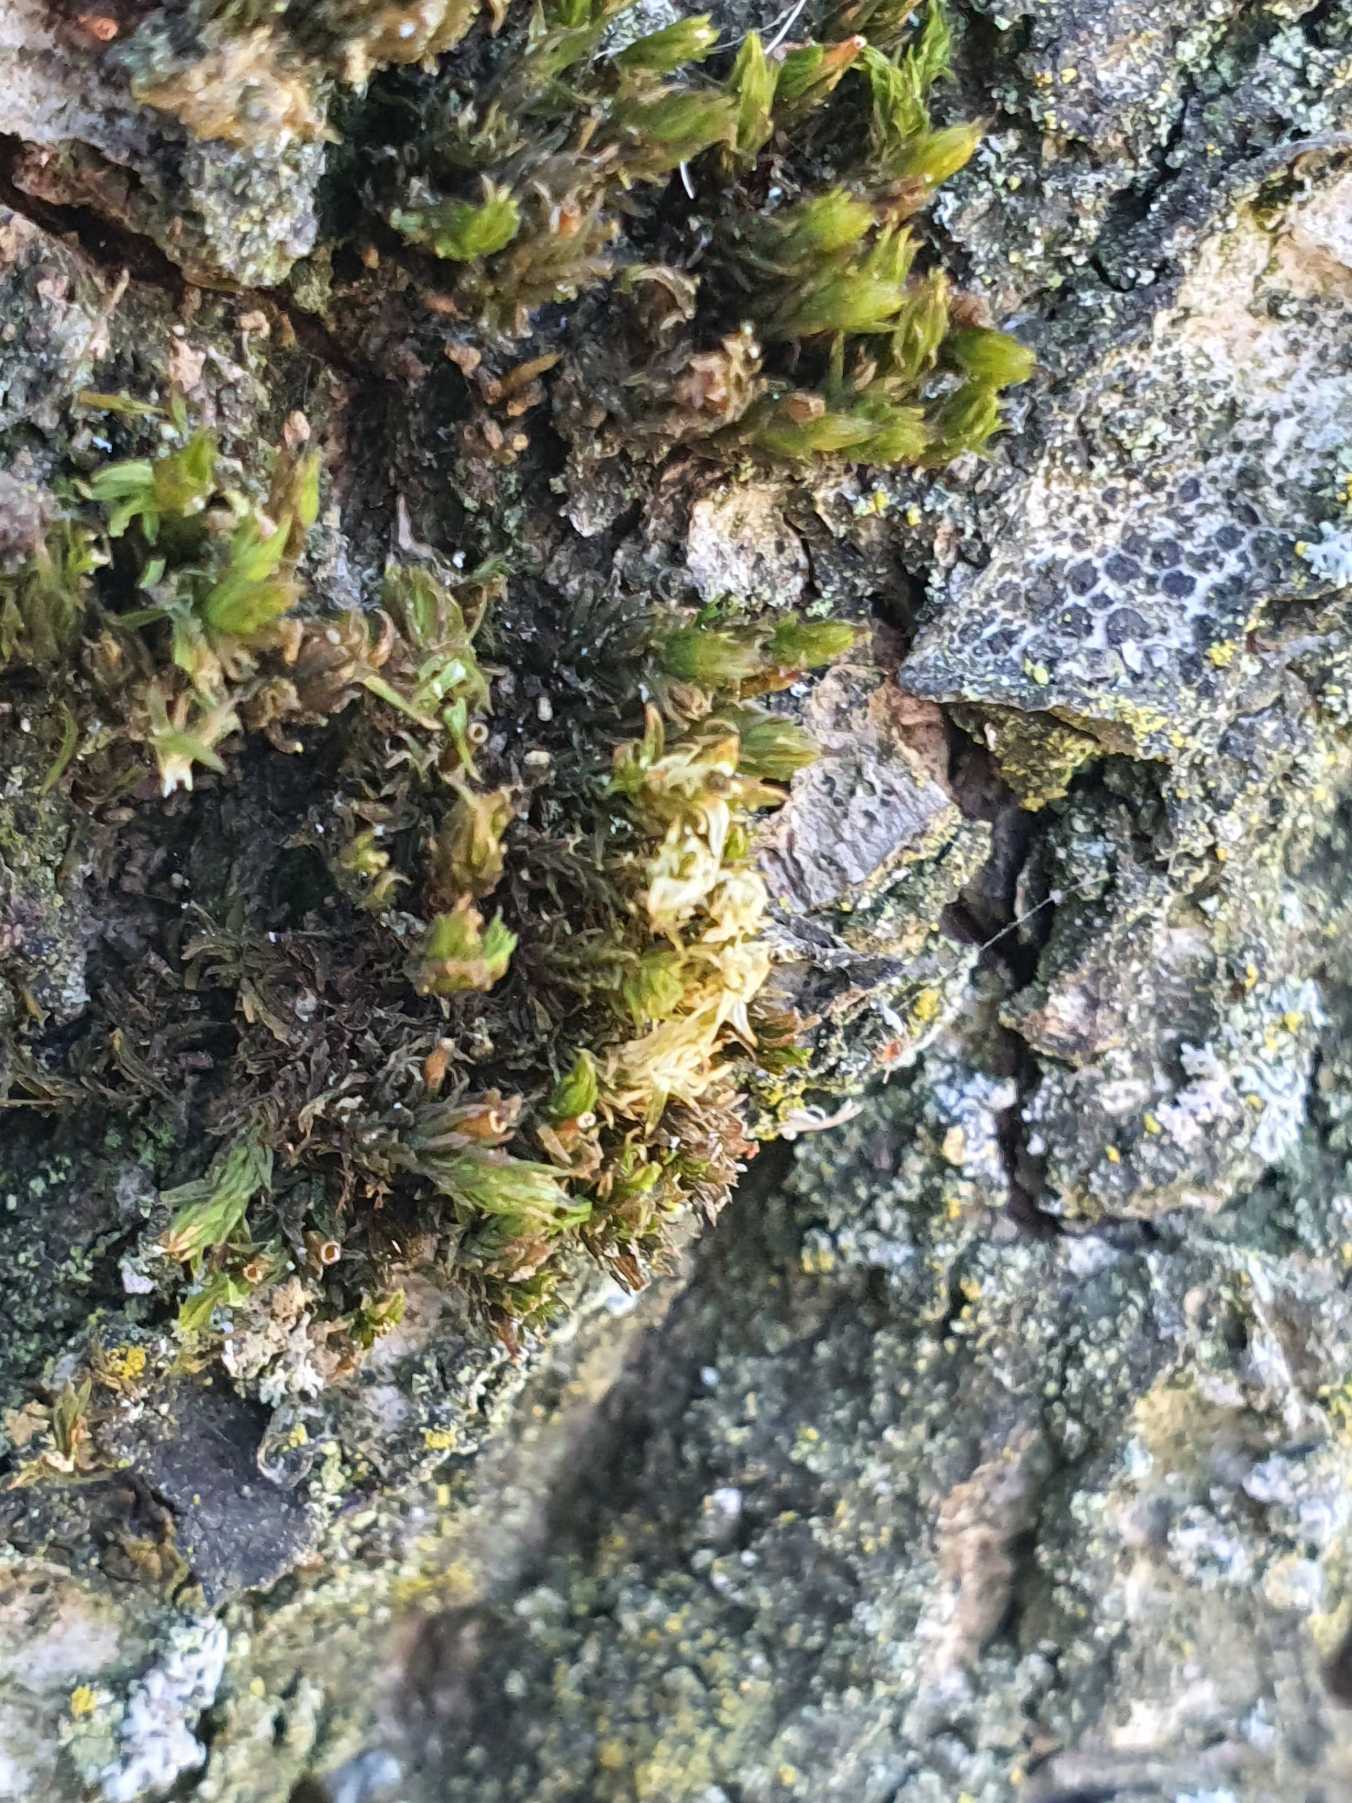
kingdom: Plantae
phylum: Bryophyta
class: Bryopsida
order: Orthotrichales
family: Orthotrichaceae
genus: Lewinskya
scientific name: Lewinskya affinis
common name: Almindelig furehætte
